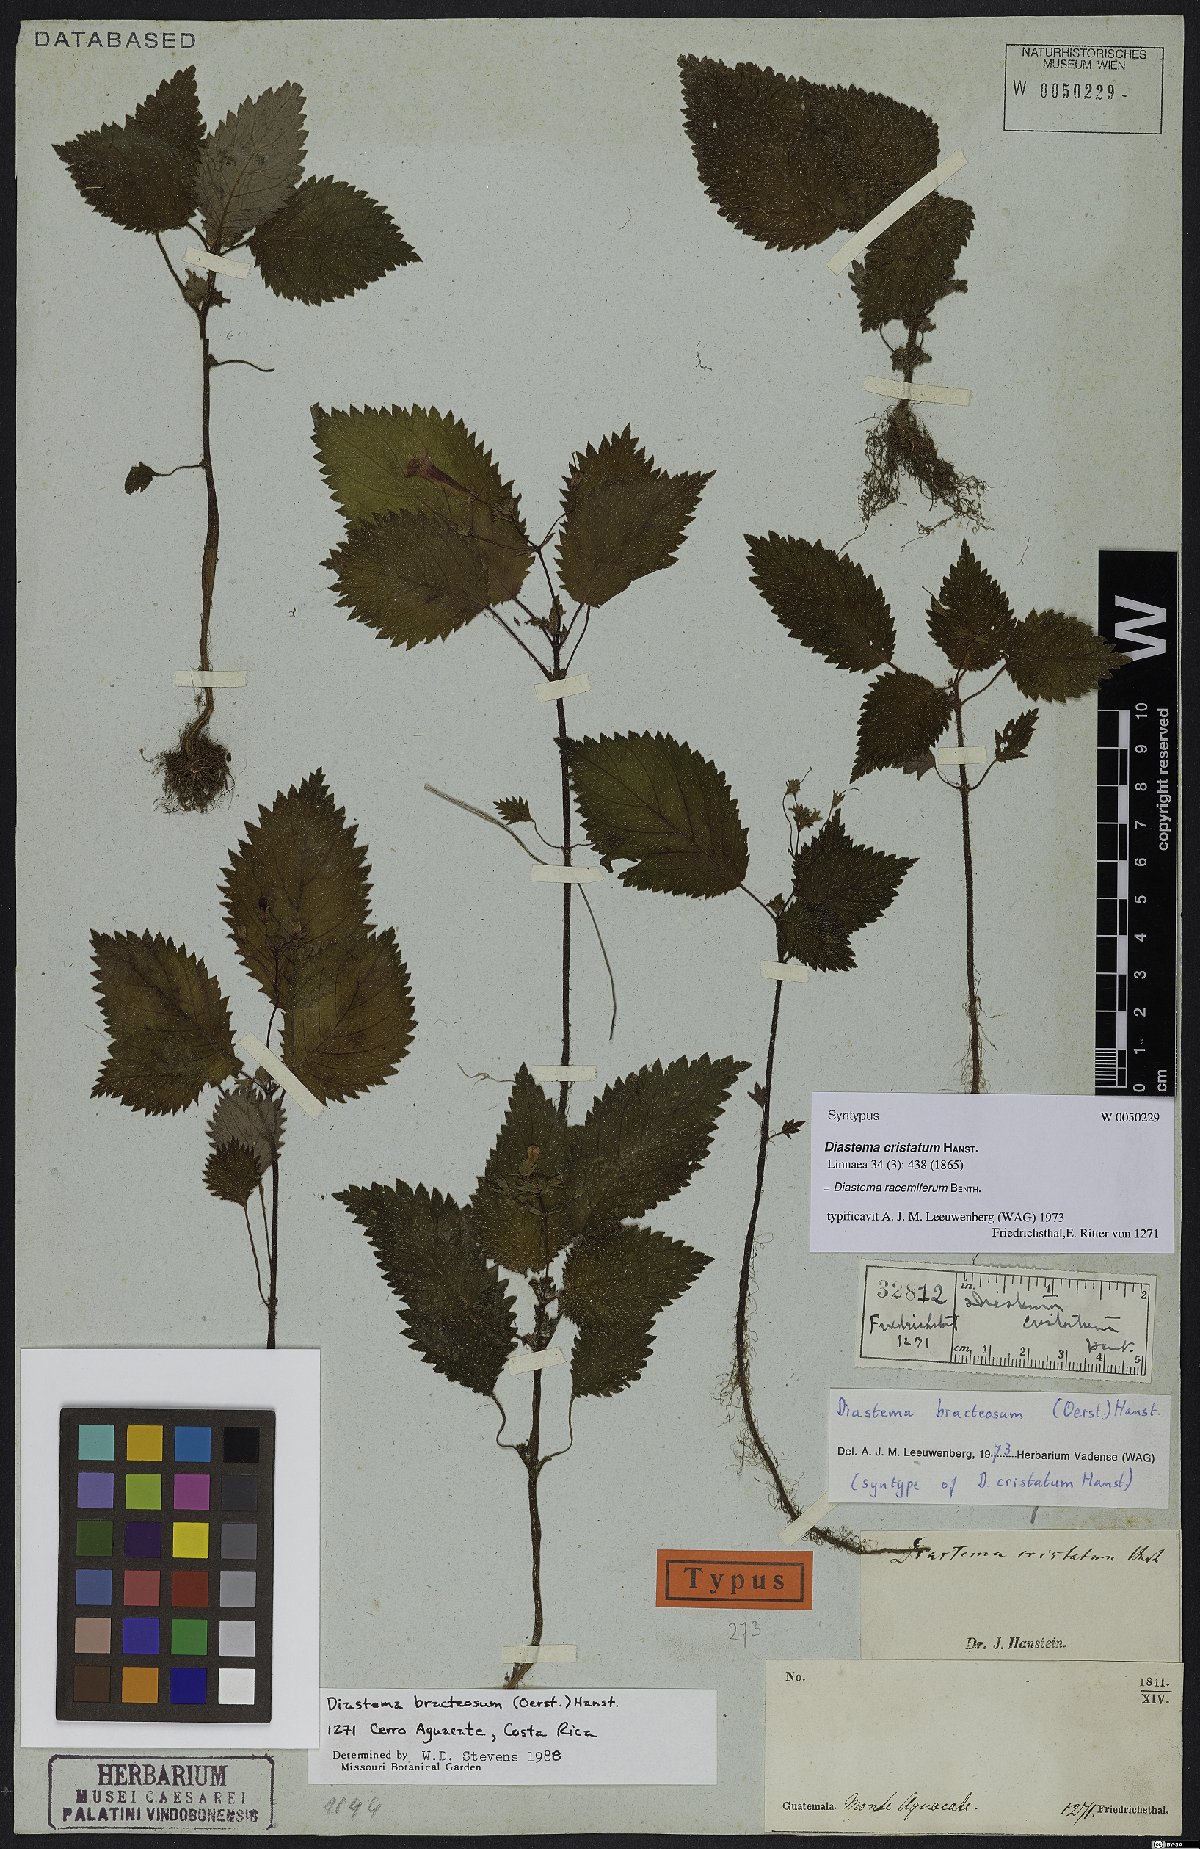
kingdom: Plantae
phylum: Tracheophyta
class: Magnoliopsida
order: Lamiales
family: Gesneriaceae
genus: Diastema
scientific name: Diastema racemiferum
